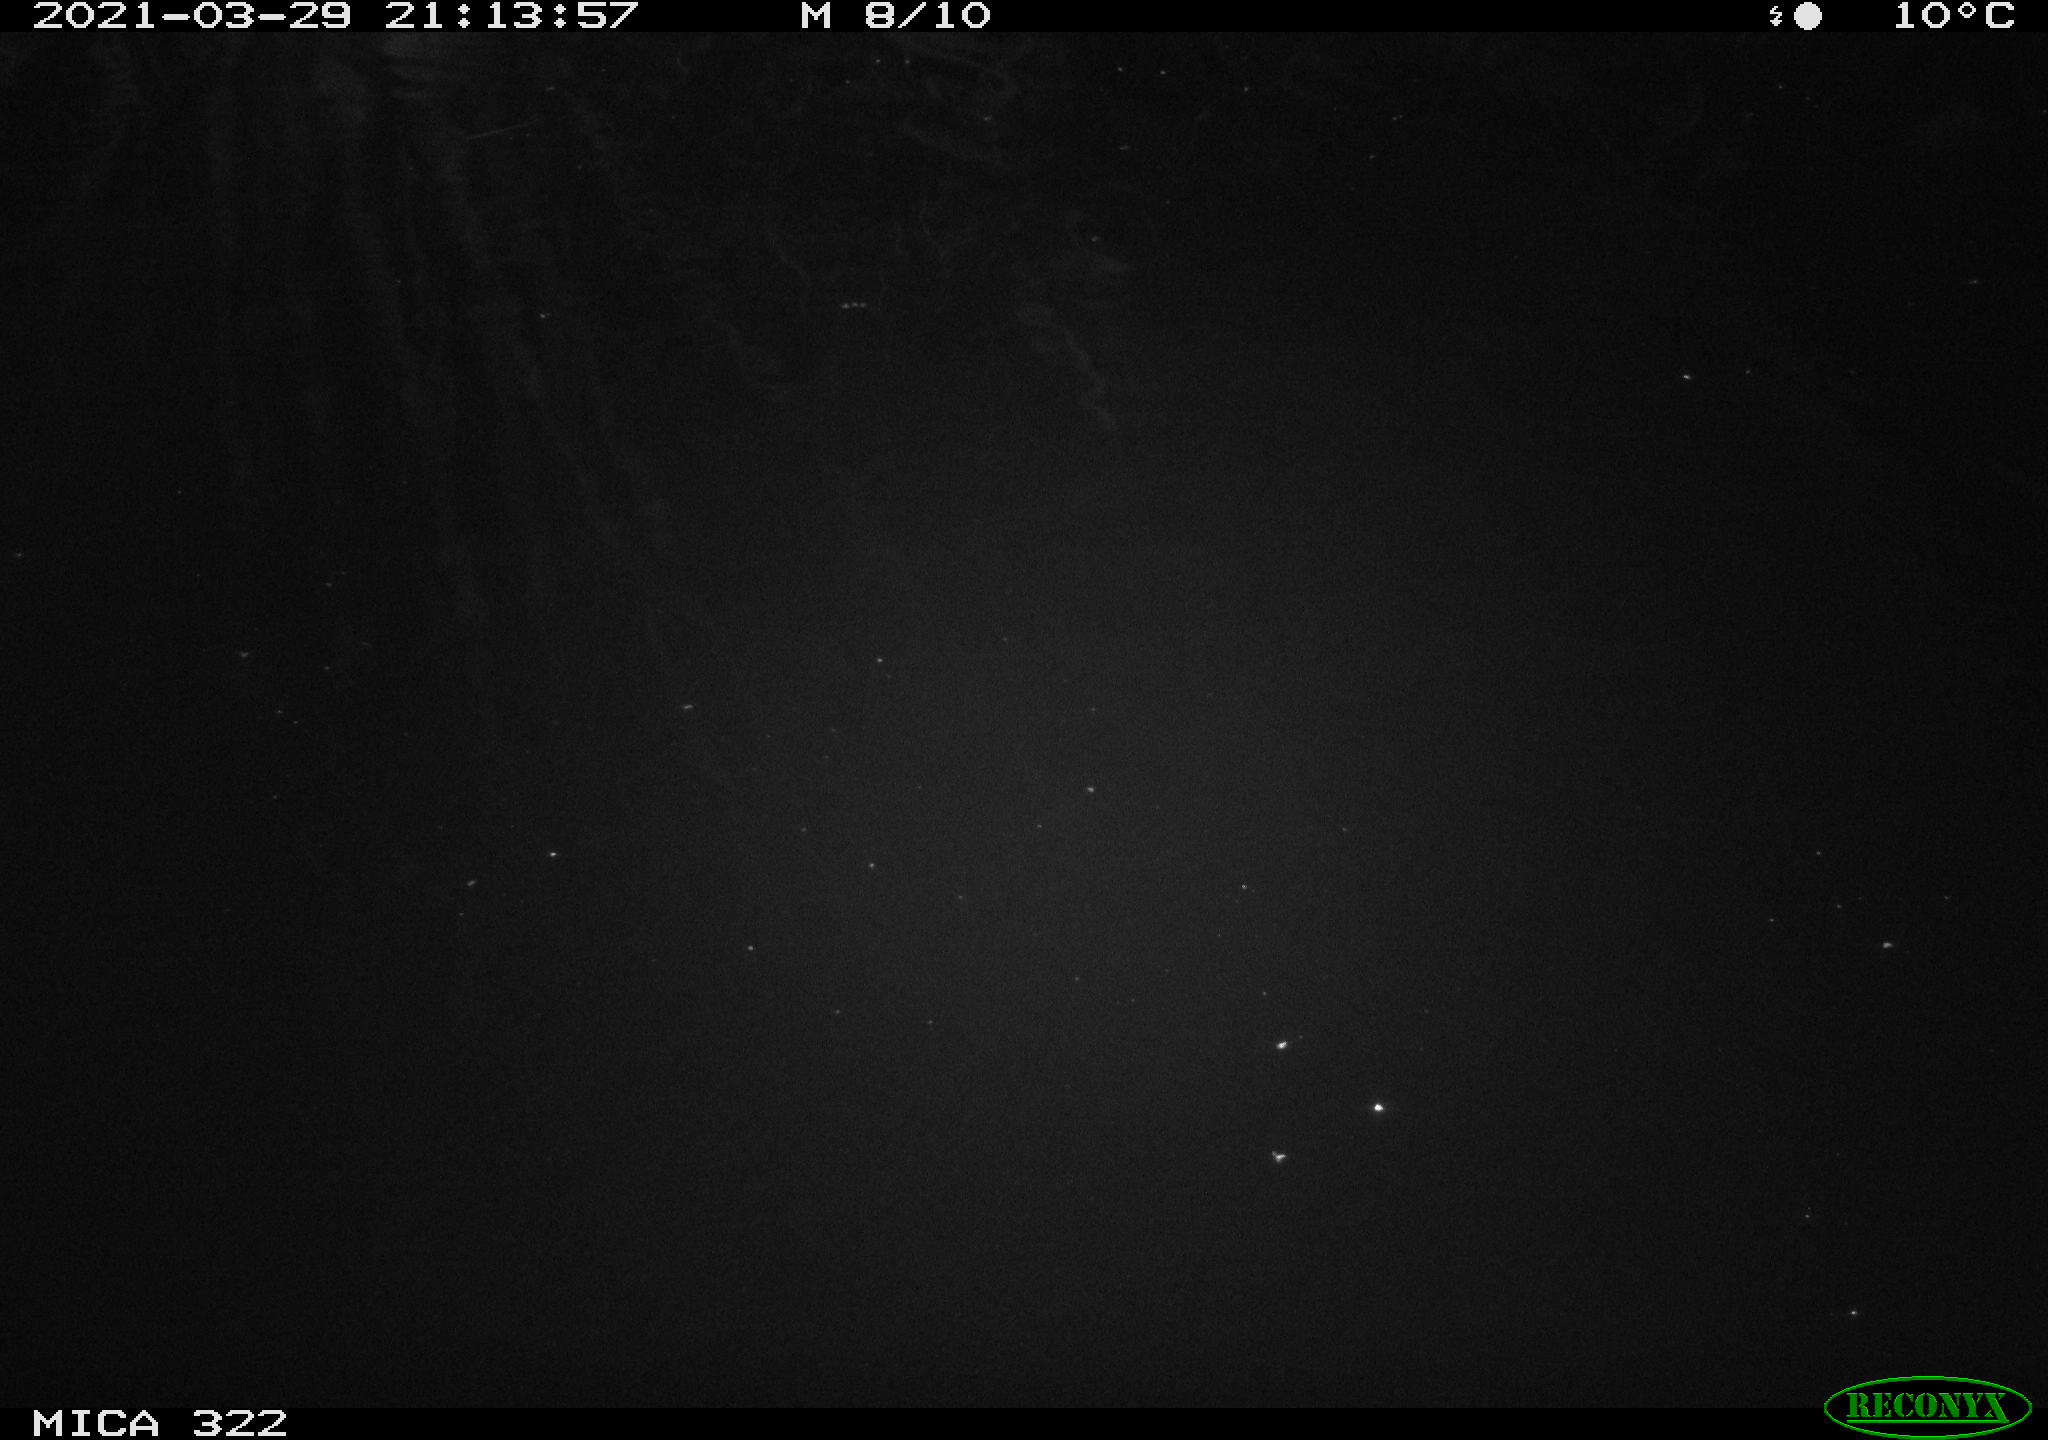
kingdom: Animalia
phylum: Chordata
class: Aves
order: Anseriformes
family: Anatidae
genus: Anas
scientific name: Anas platyrhynchos
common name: Mallard
